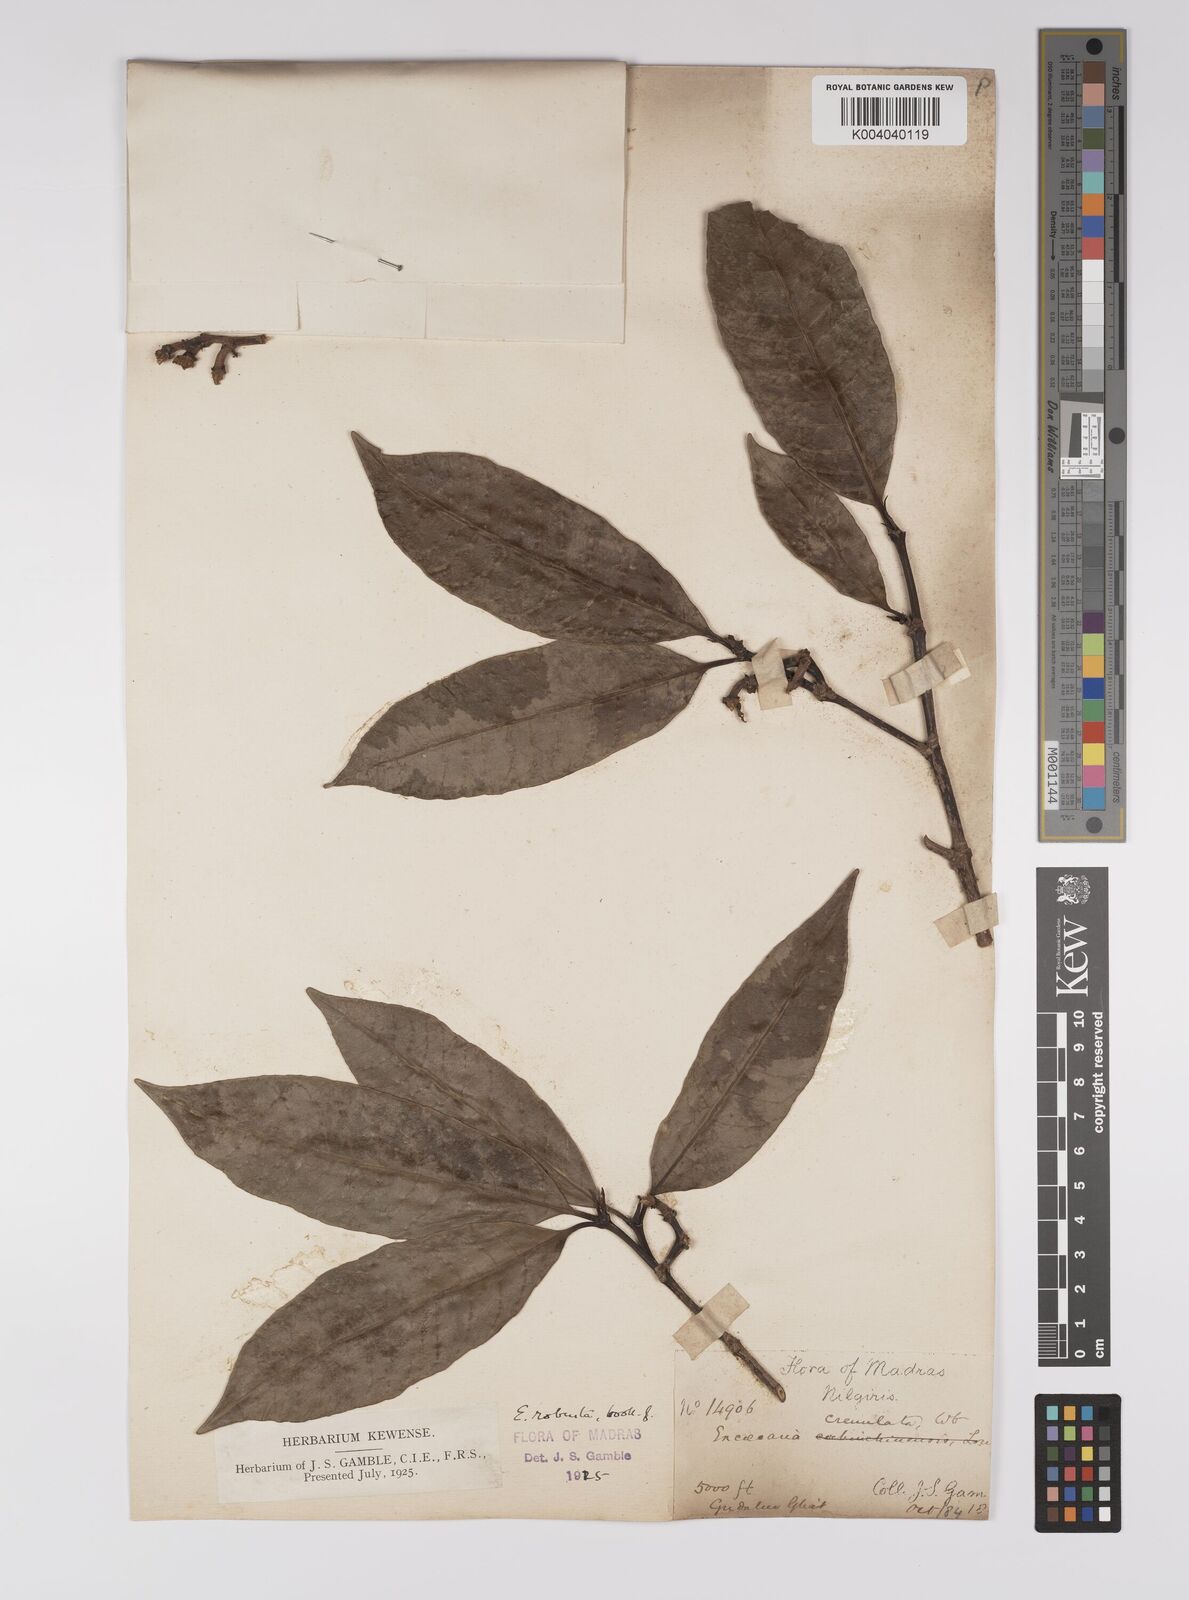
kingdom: Plantae
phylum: Tracheophyta
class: Magnoliopsida
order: Malpighiales
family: Euphorbiaceae
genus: Excoecaria
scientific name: Excoecaria oppositifolia
